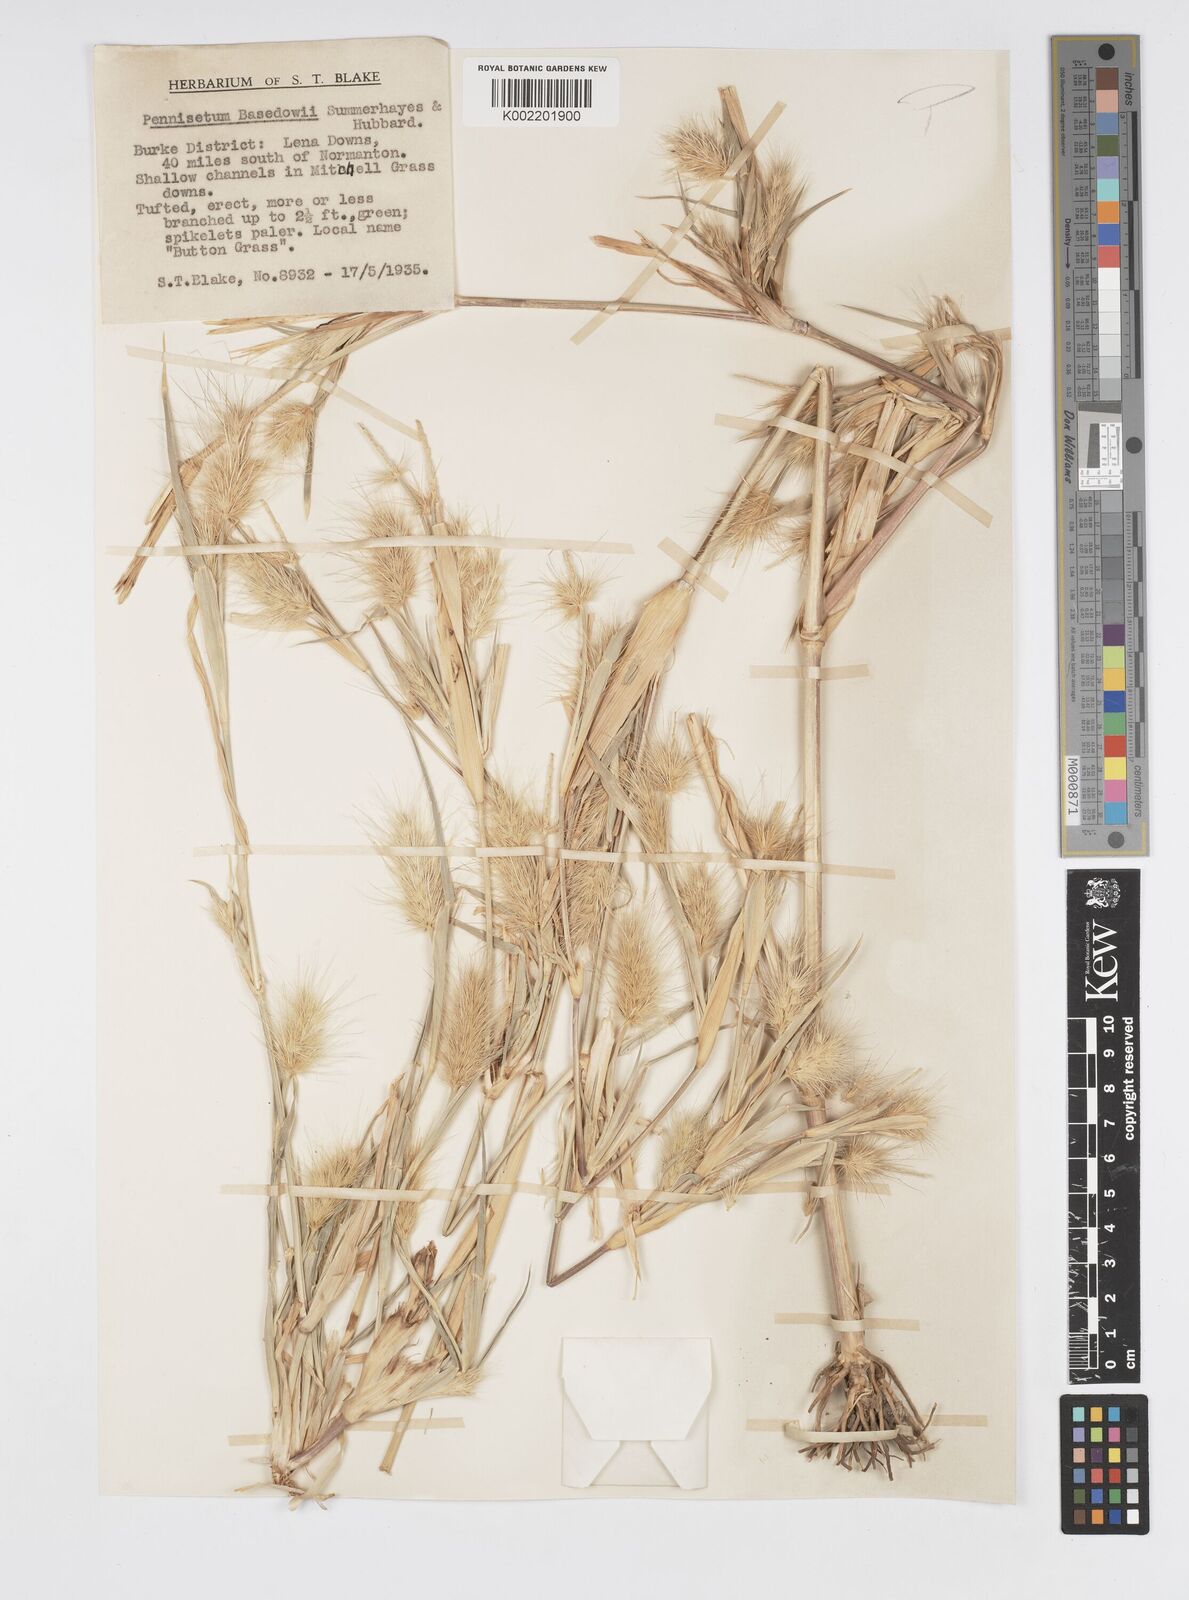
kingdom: Plantae
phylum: Tracheophyta
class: Liliopsida
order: Poales
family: Poaceae
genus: Cenchrus
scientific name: Cenchrus basedowii
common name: Asbestos grass
